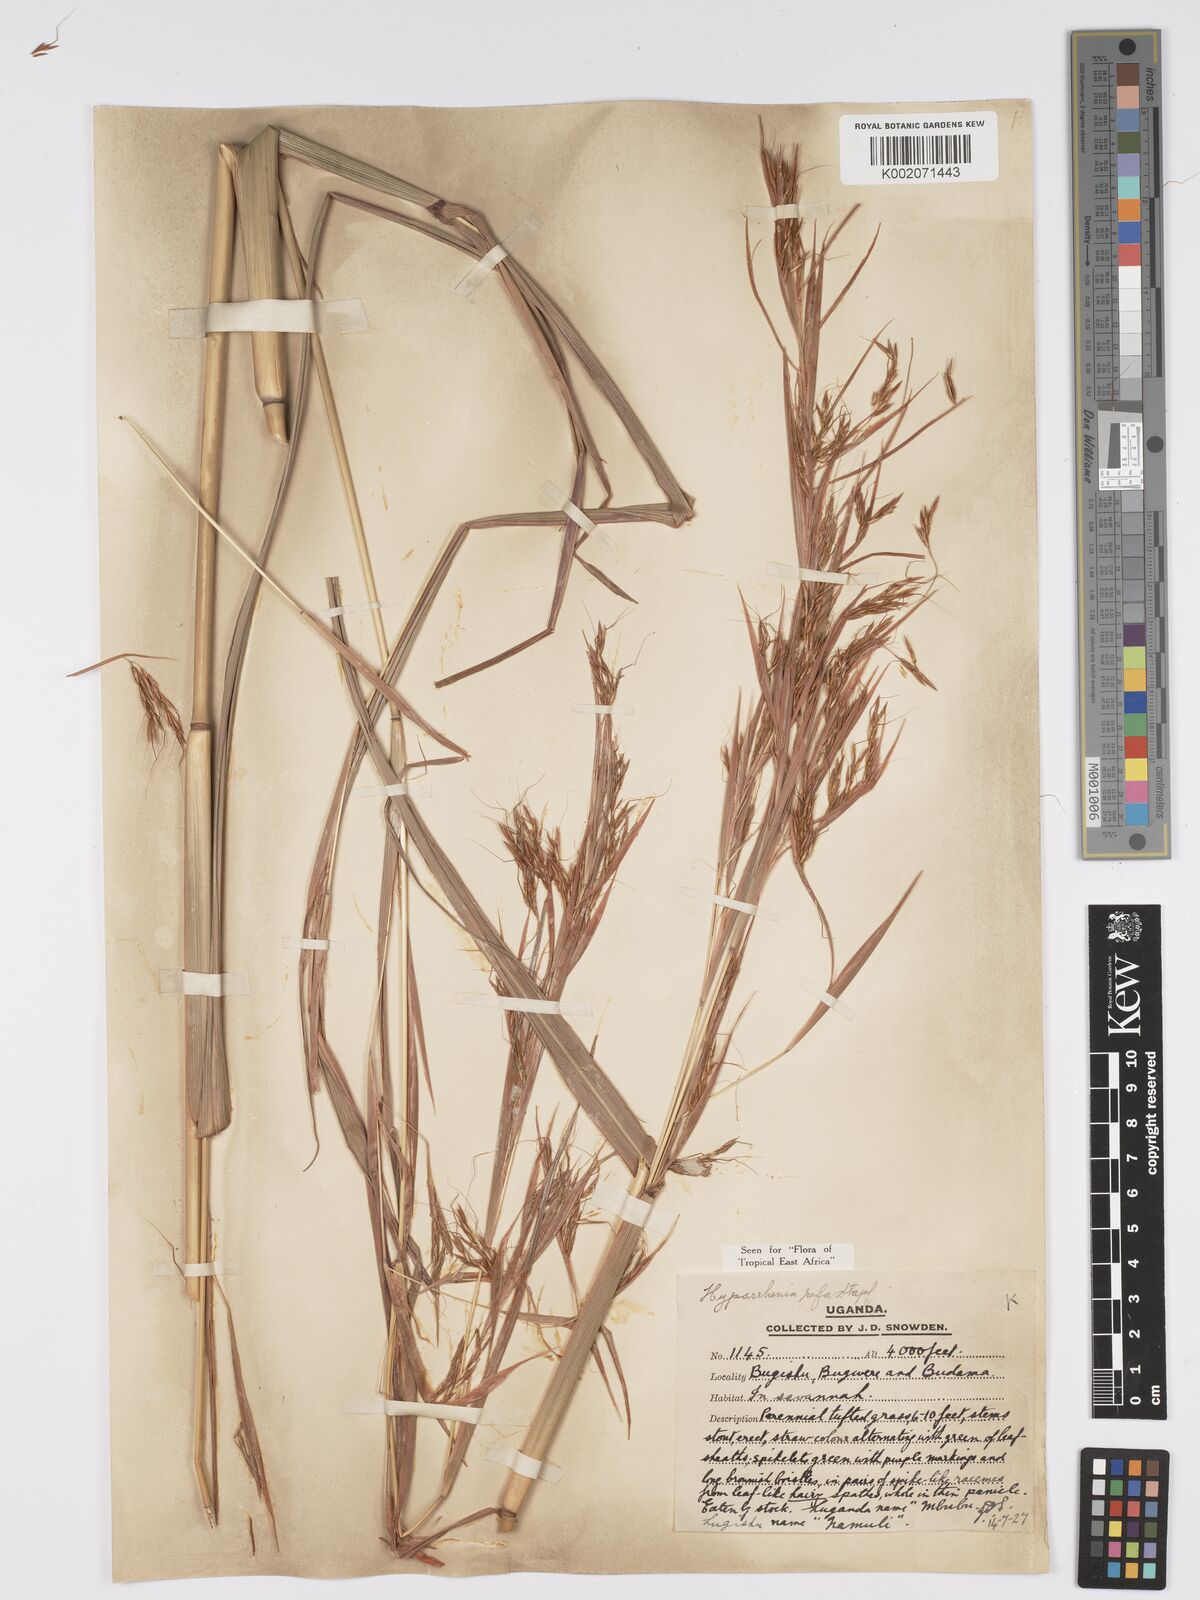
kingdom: Plantae
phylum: Tracheophyta
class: Liliopsida
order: Poales
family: Poaceae
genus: Hyparrhenia
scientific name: Hyparrhenia rufa
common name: Jaraguagrass
